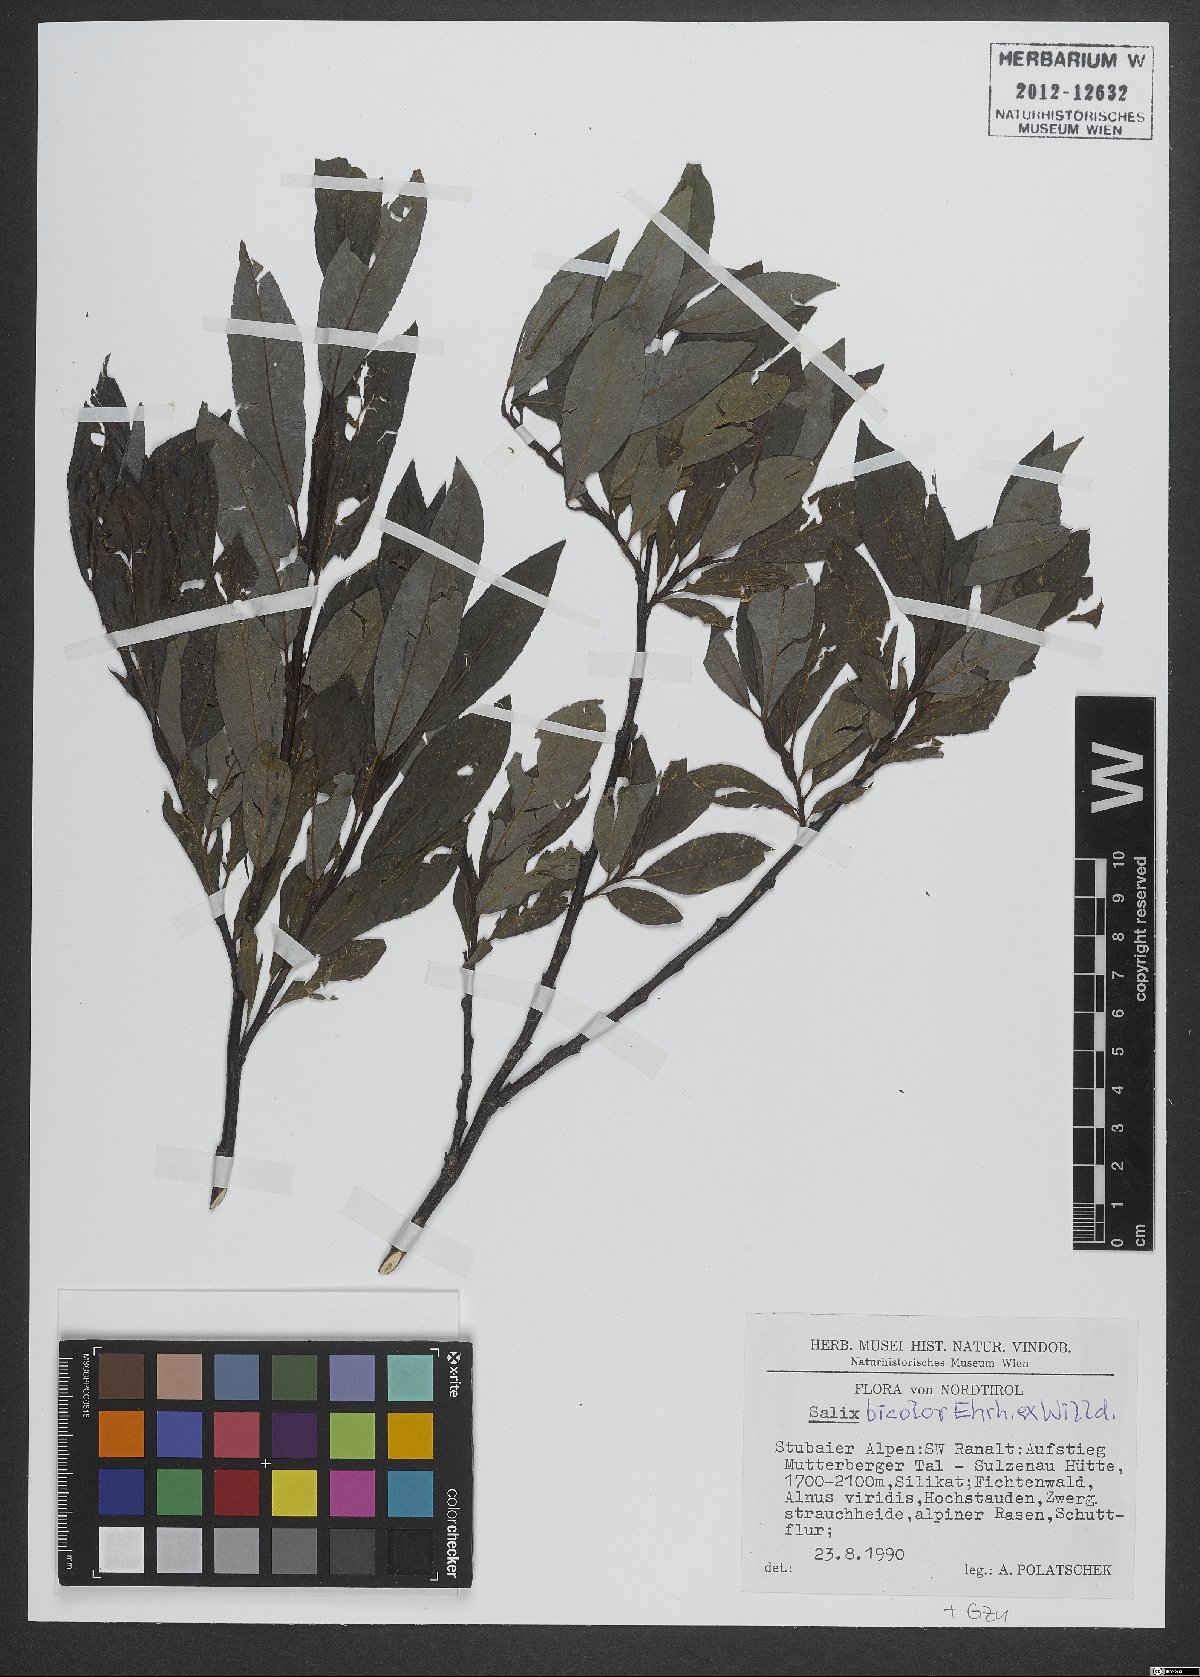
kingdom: Plantae
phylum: Tracheophyta
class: Magnoliopsida
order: Malpighiales
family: Salicaceae
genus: Salix
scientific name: Salix bicolor
